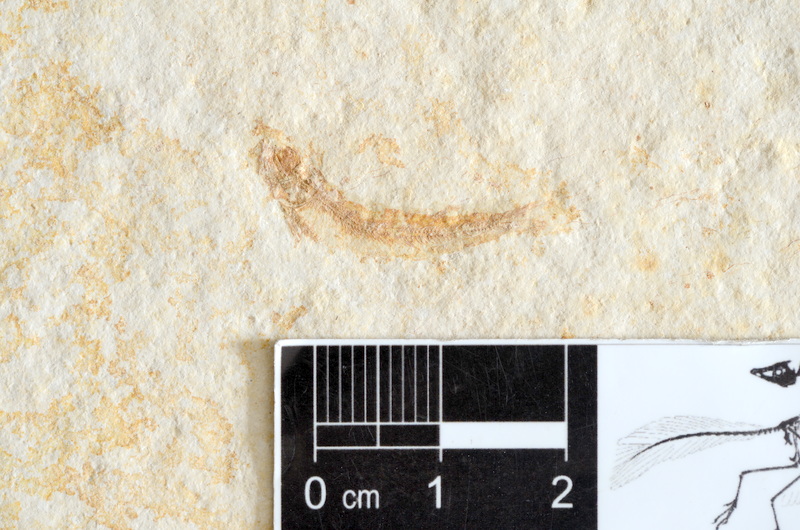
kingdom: Animalia
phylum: Chordata
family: Allothrissopidae
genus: Allothrissops
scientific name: Allothrissops mesogaster
